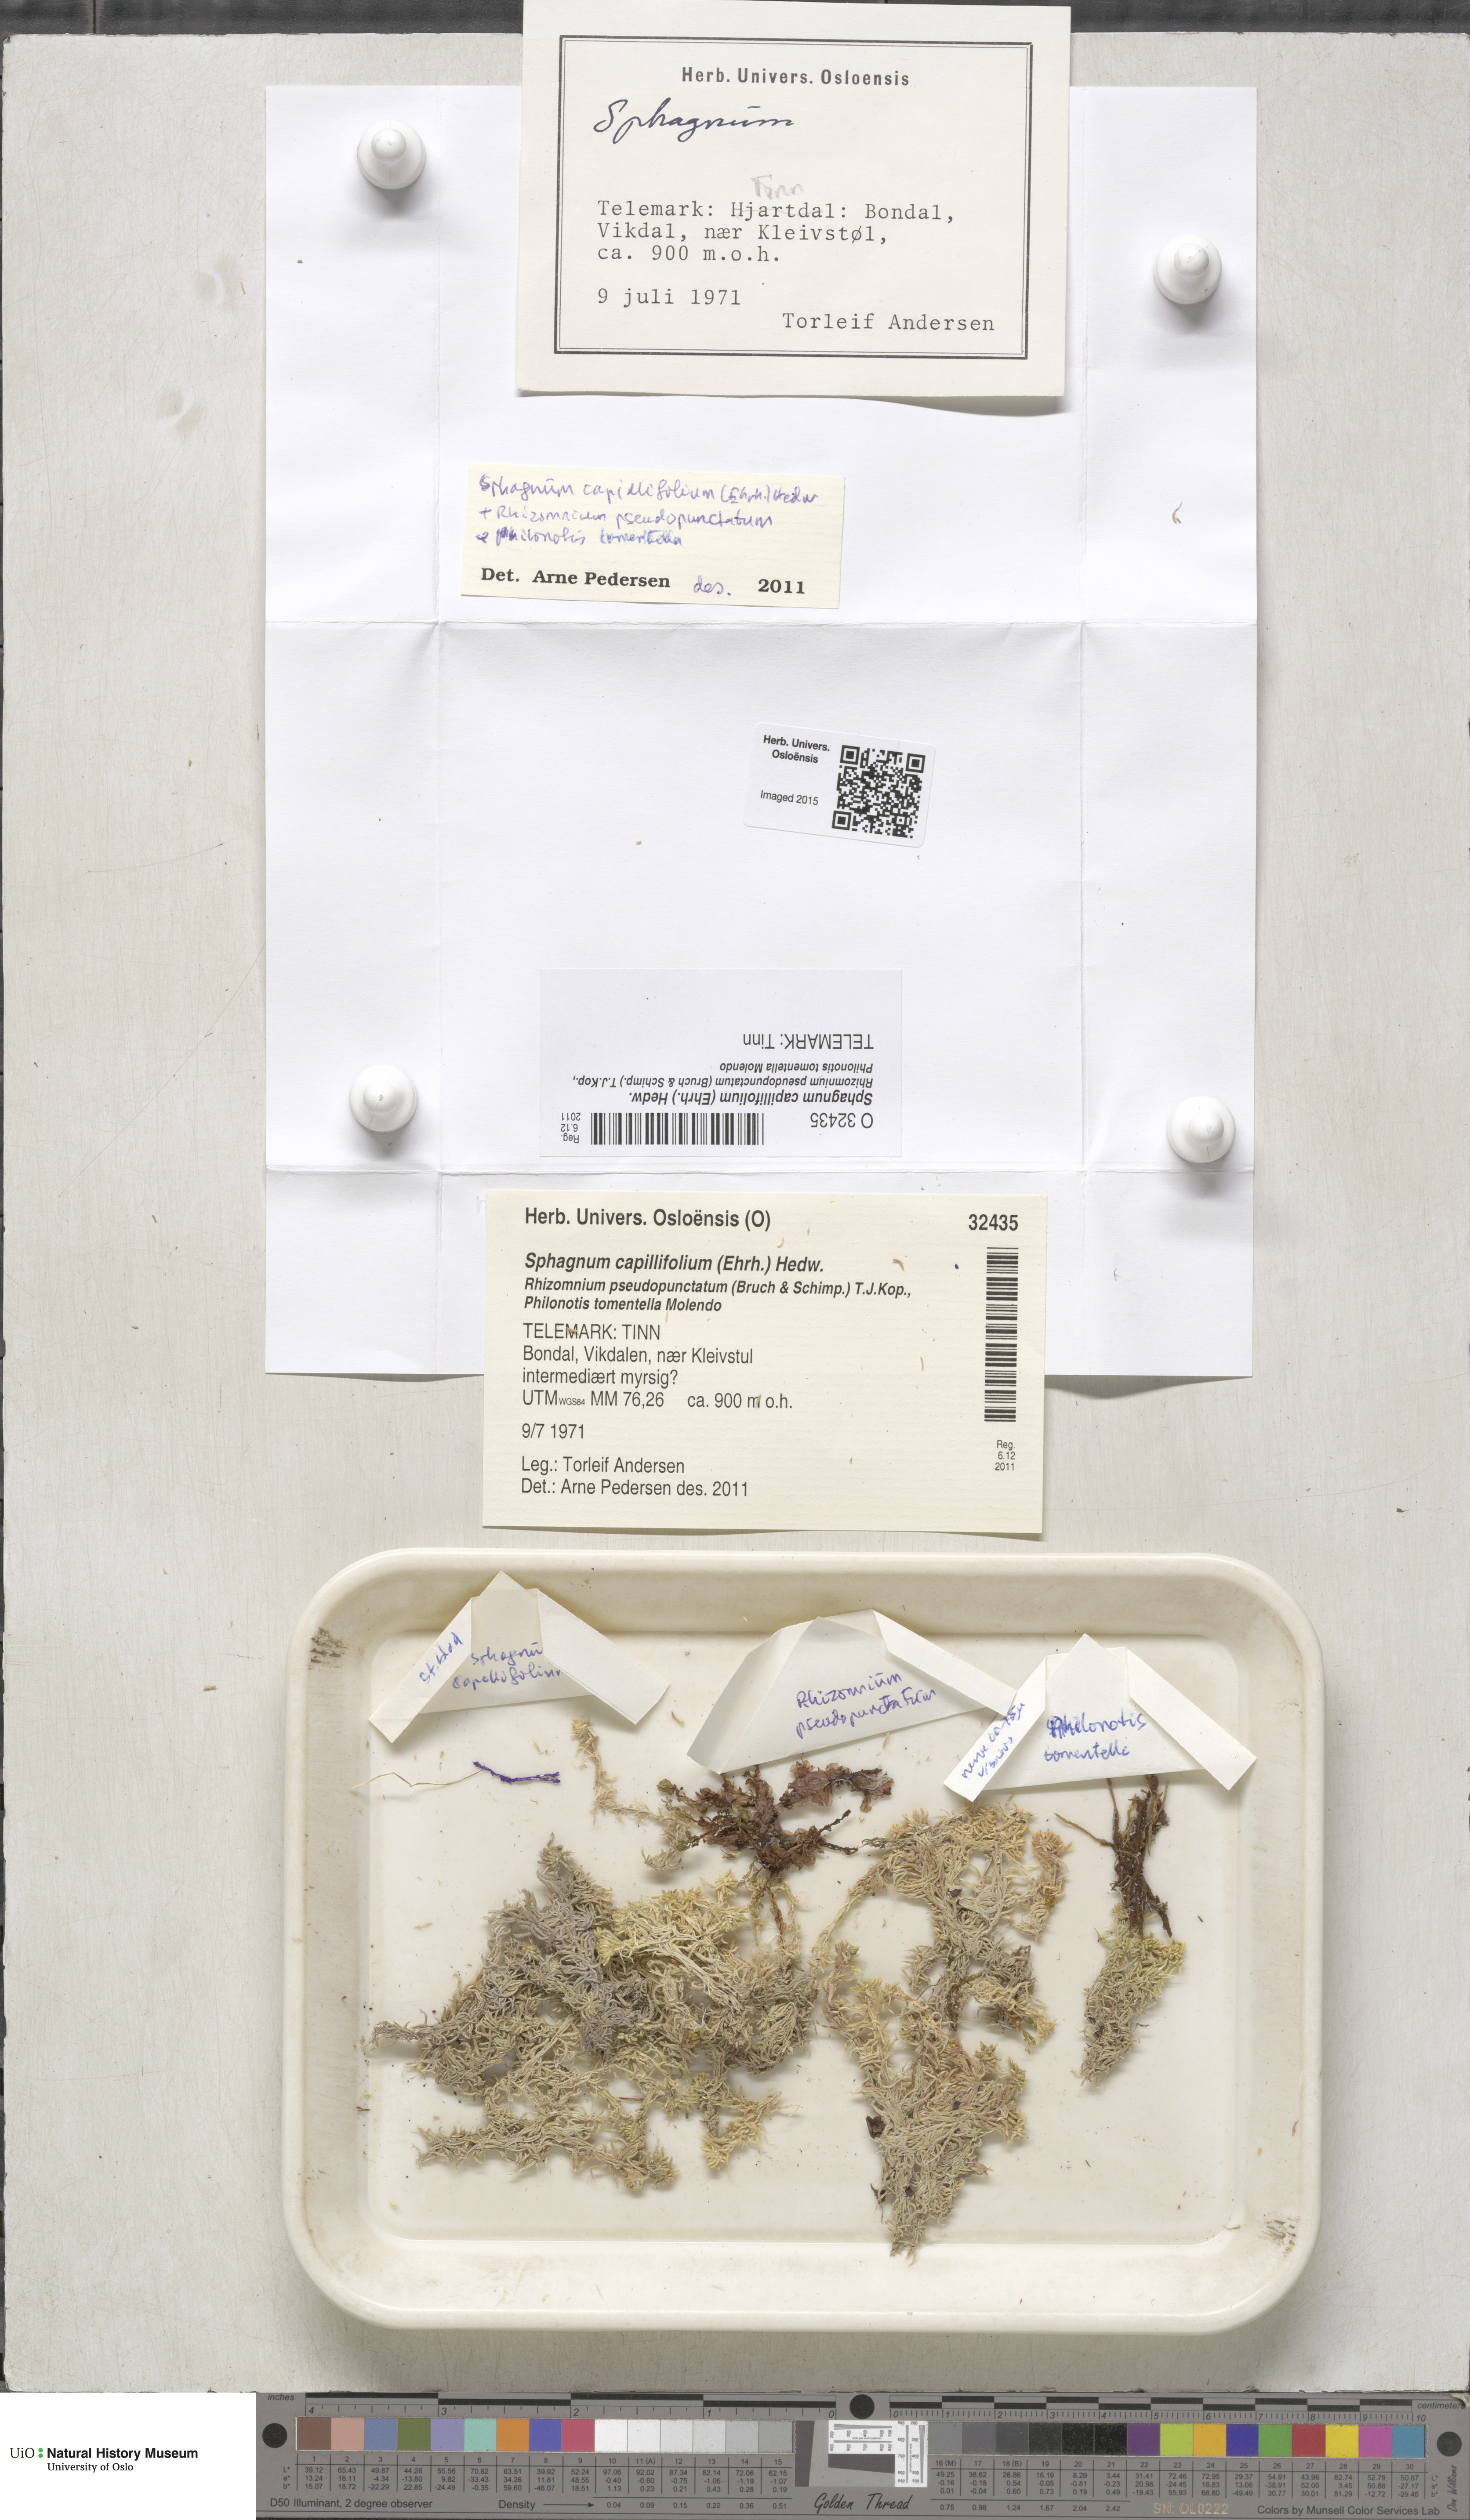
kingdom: Plantae
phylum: Bryophyta
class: Sphagnopsida
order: Sphagnales
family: Sphagnaceae
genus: Sphagnum
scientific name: Sphagnum capillifolium
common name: Small red peat moss
